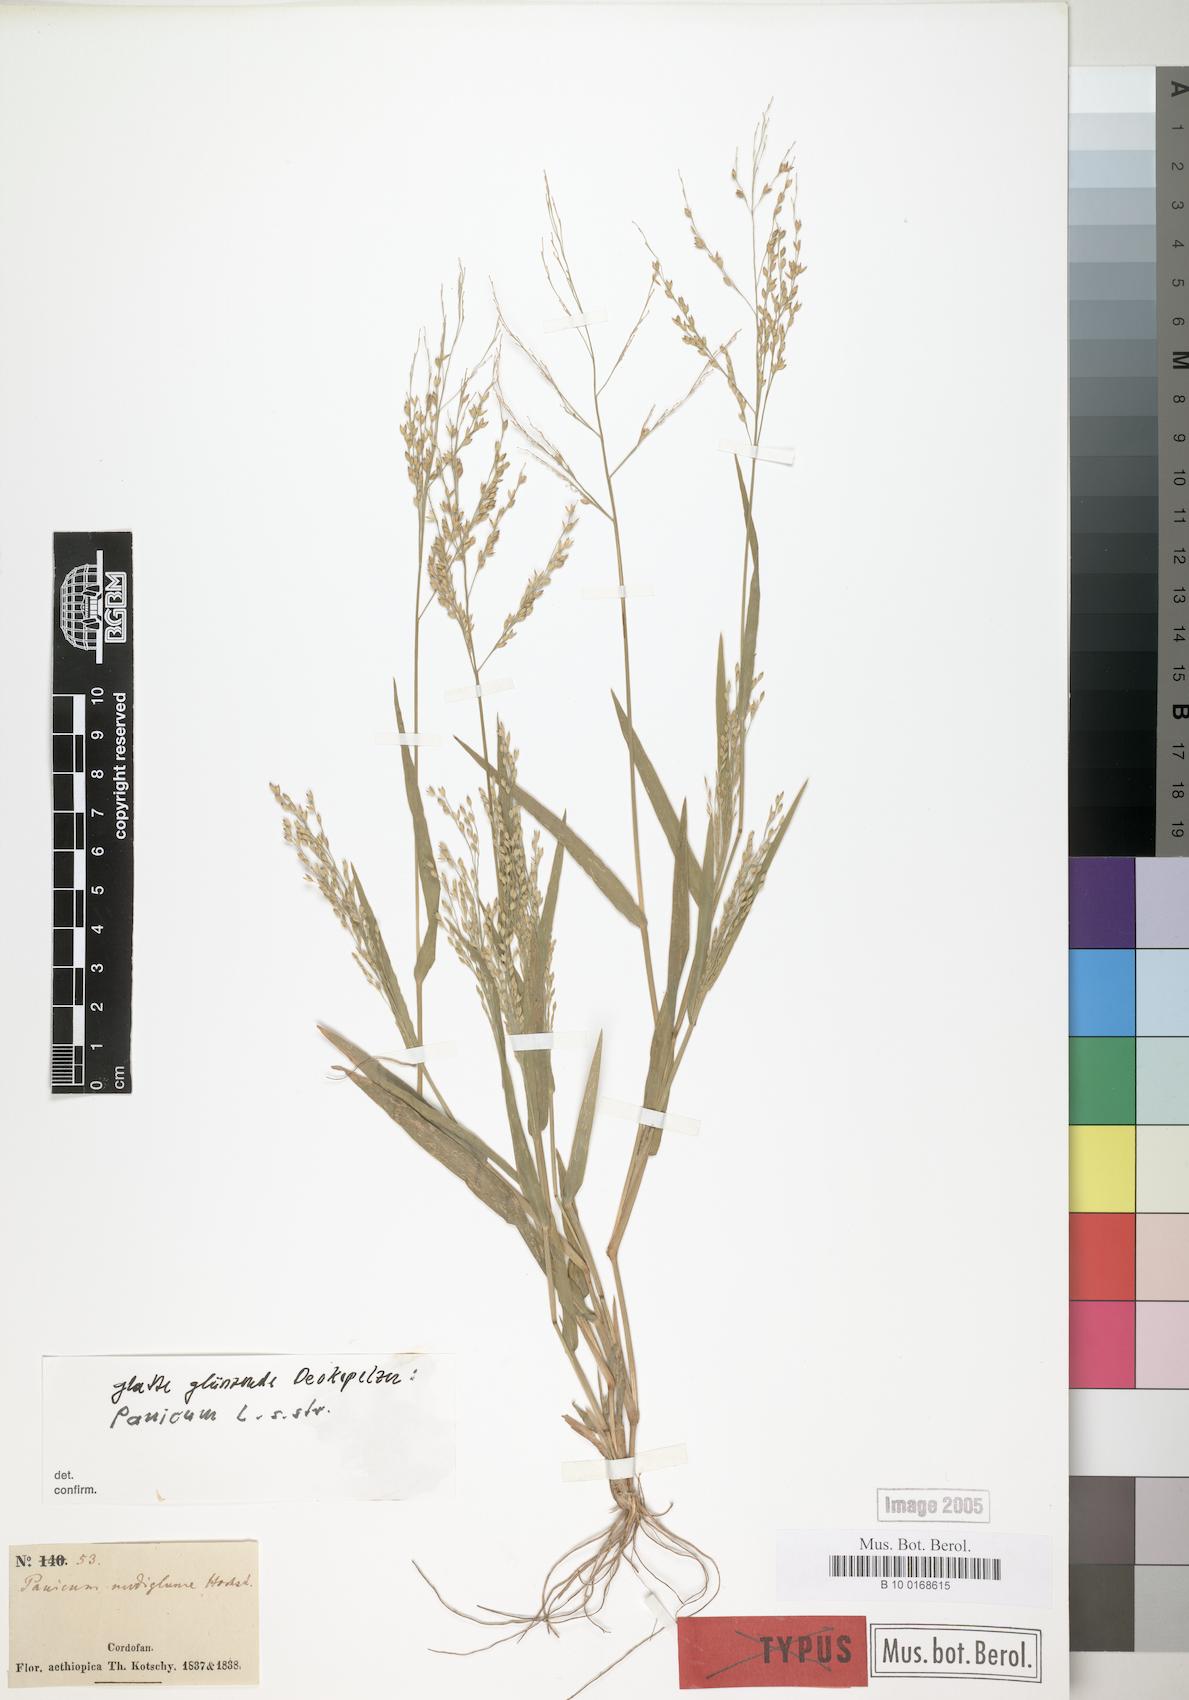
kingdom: Plantae
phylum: Tracheophyta
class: Liliopsida
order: Poales
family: Poaceae
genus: Urochloa
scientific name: Urochloa deflexa
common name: Guinea millet
